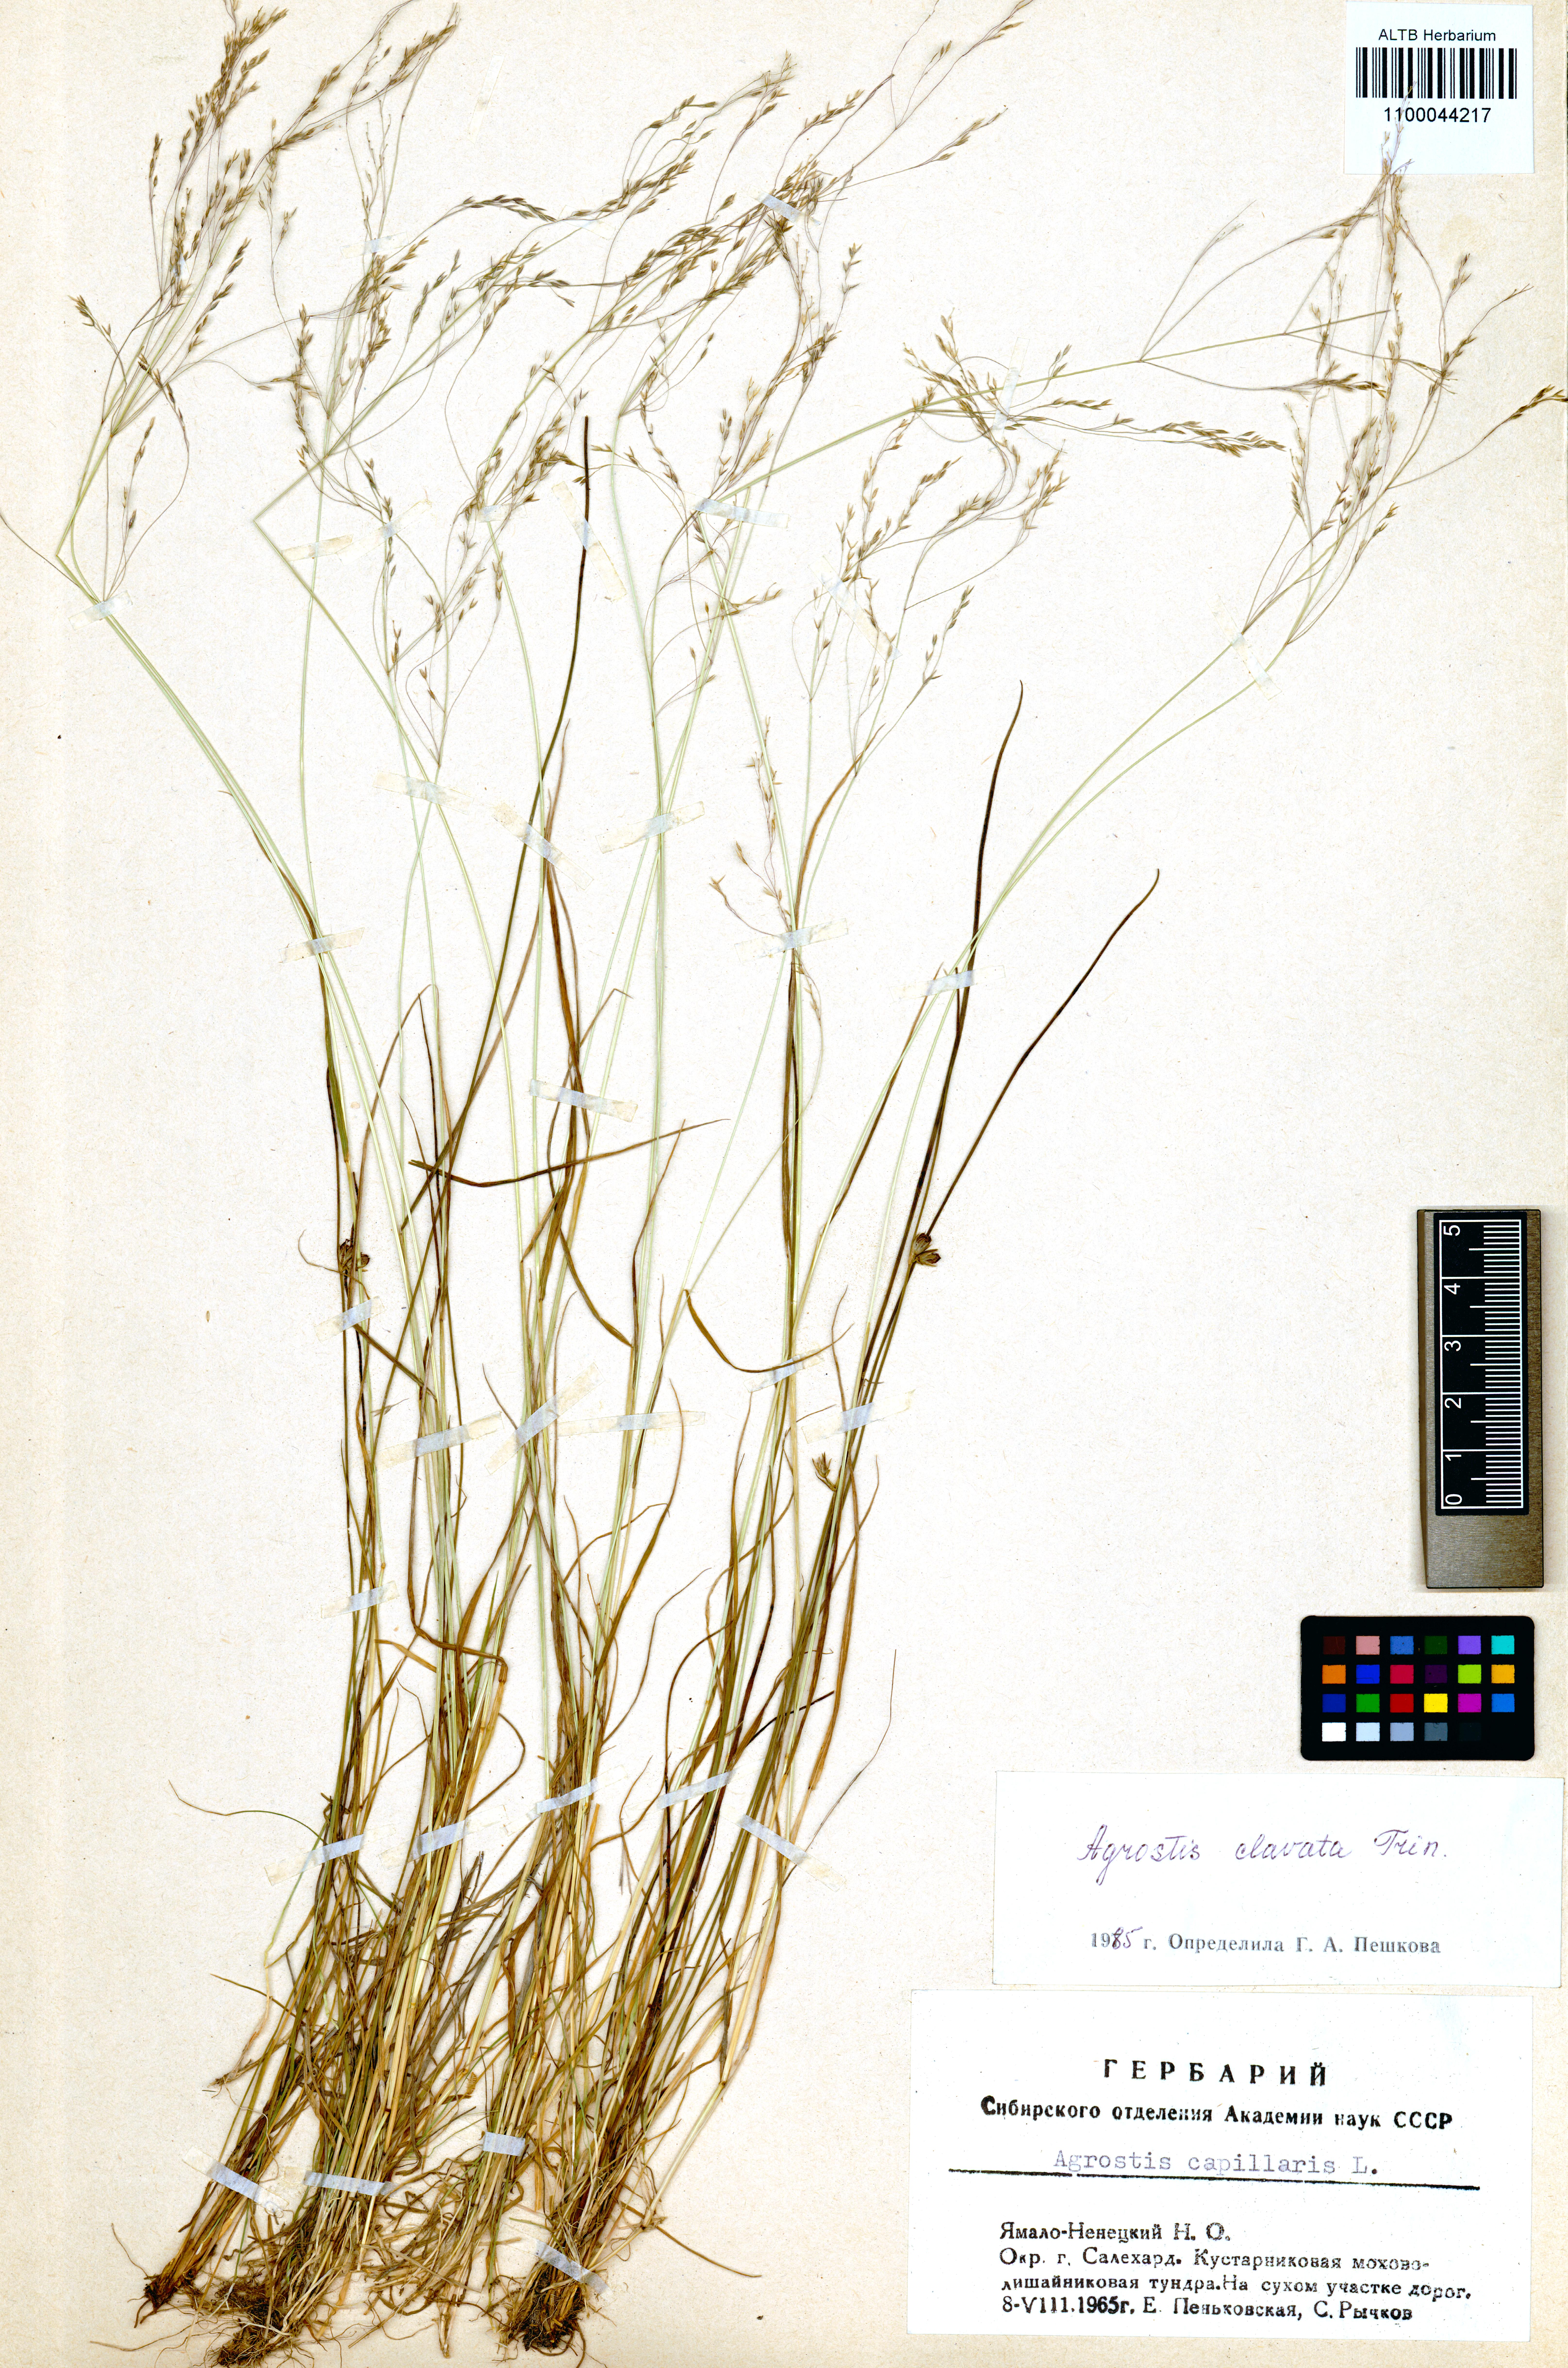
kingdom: Plantae
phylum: Tracheophyta
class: Liliopsida
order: Poales
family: Poaceae
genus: Agrostis
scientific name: Agrostis clavata
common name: Clavate bent
